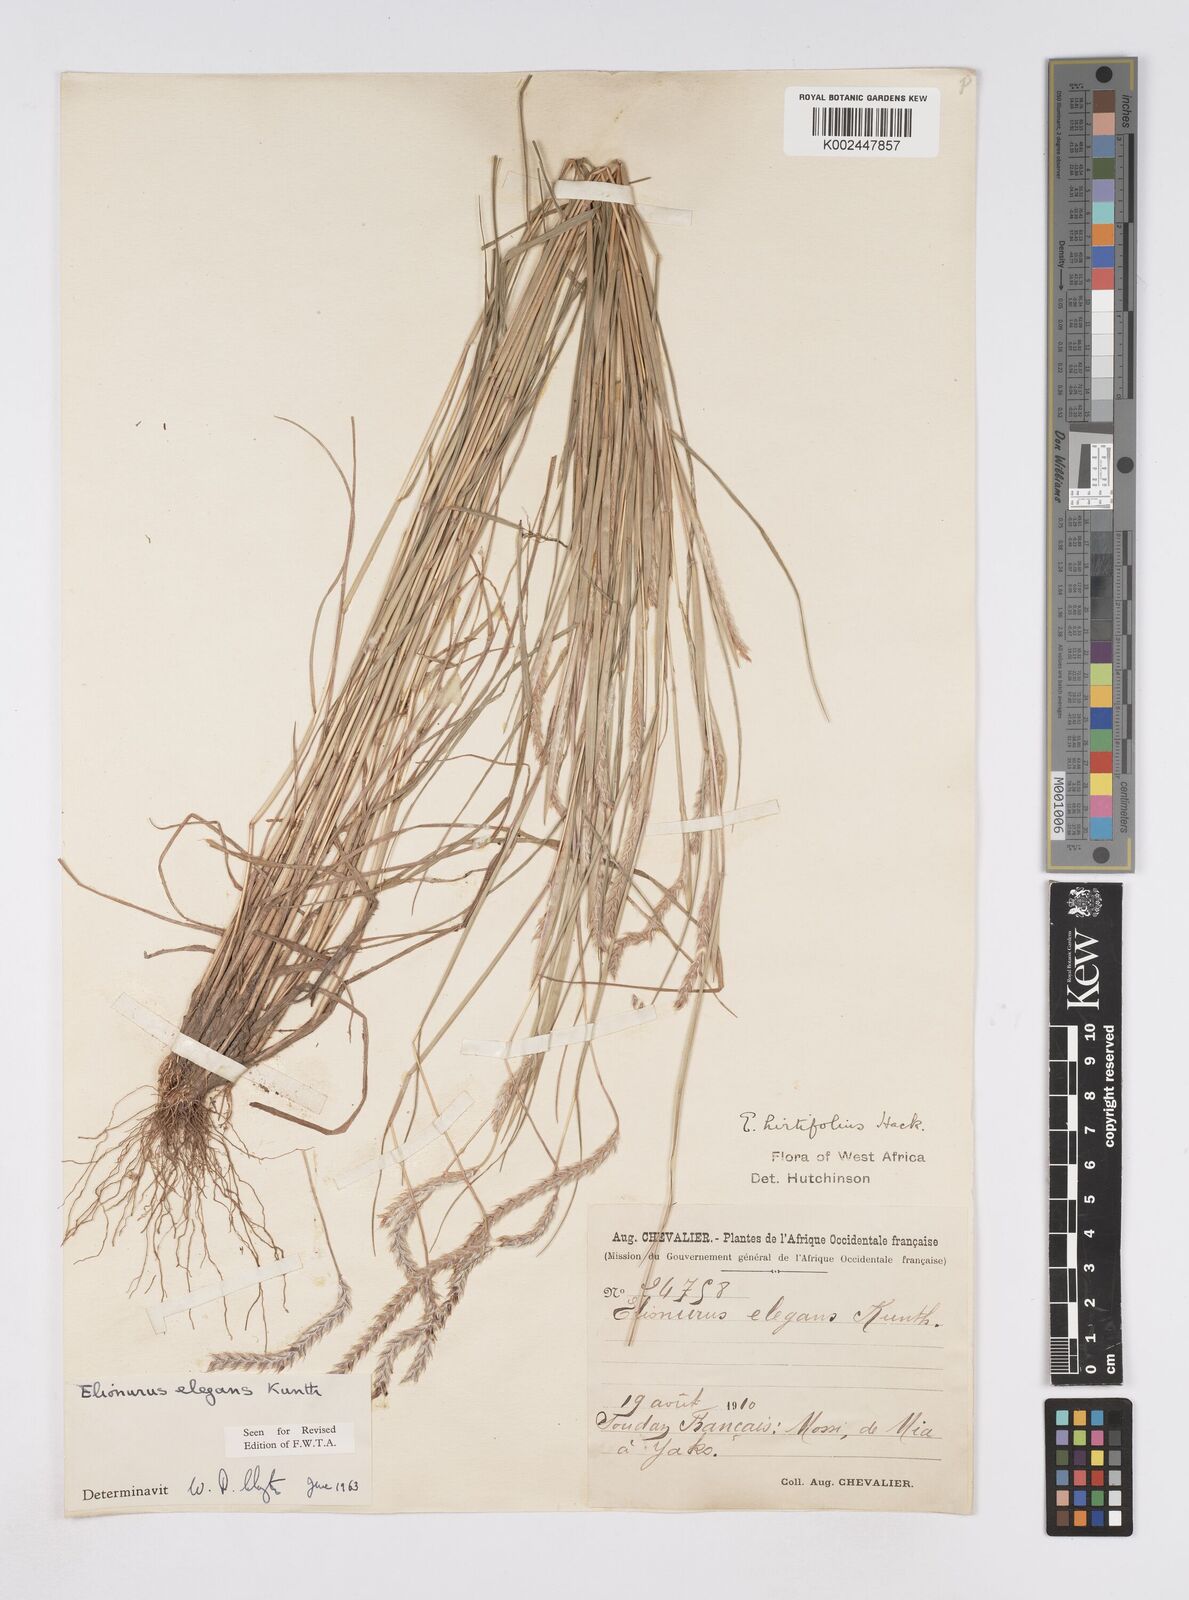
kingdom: Plantae
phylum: Tracheophyta
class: Liliopsida
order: Poales
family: Poaceae
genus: Elionurus
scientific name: Elionurus elegans
